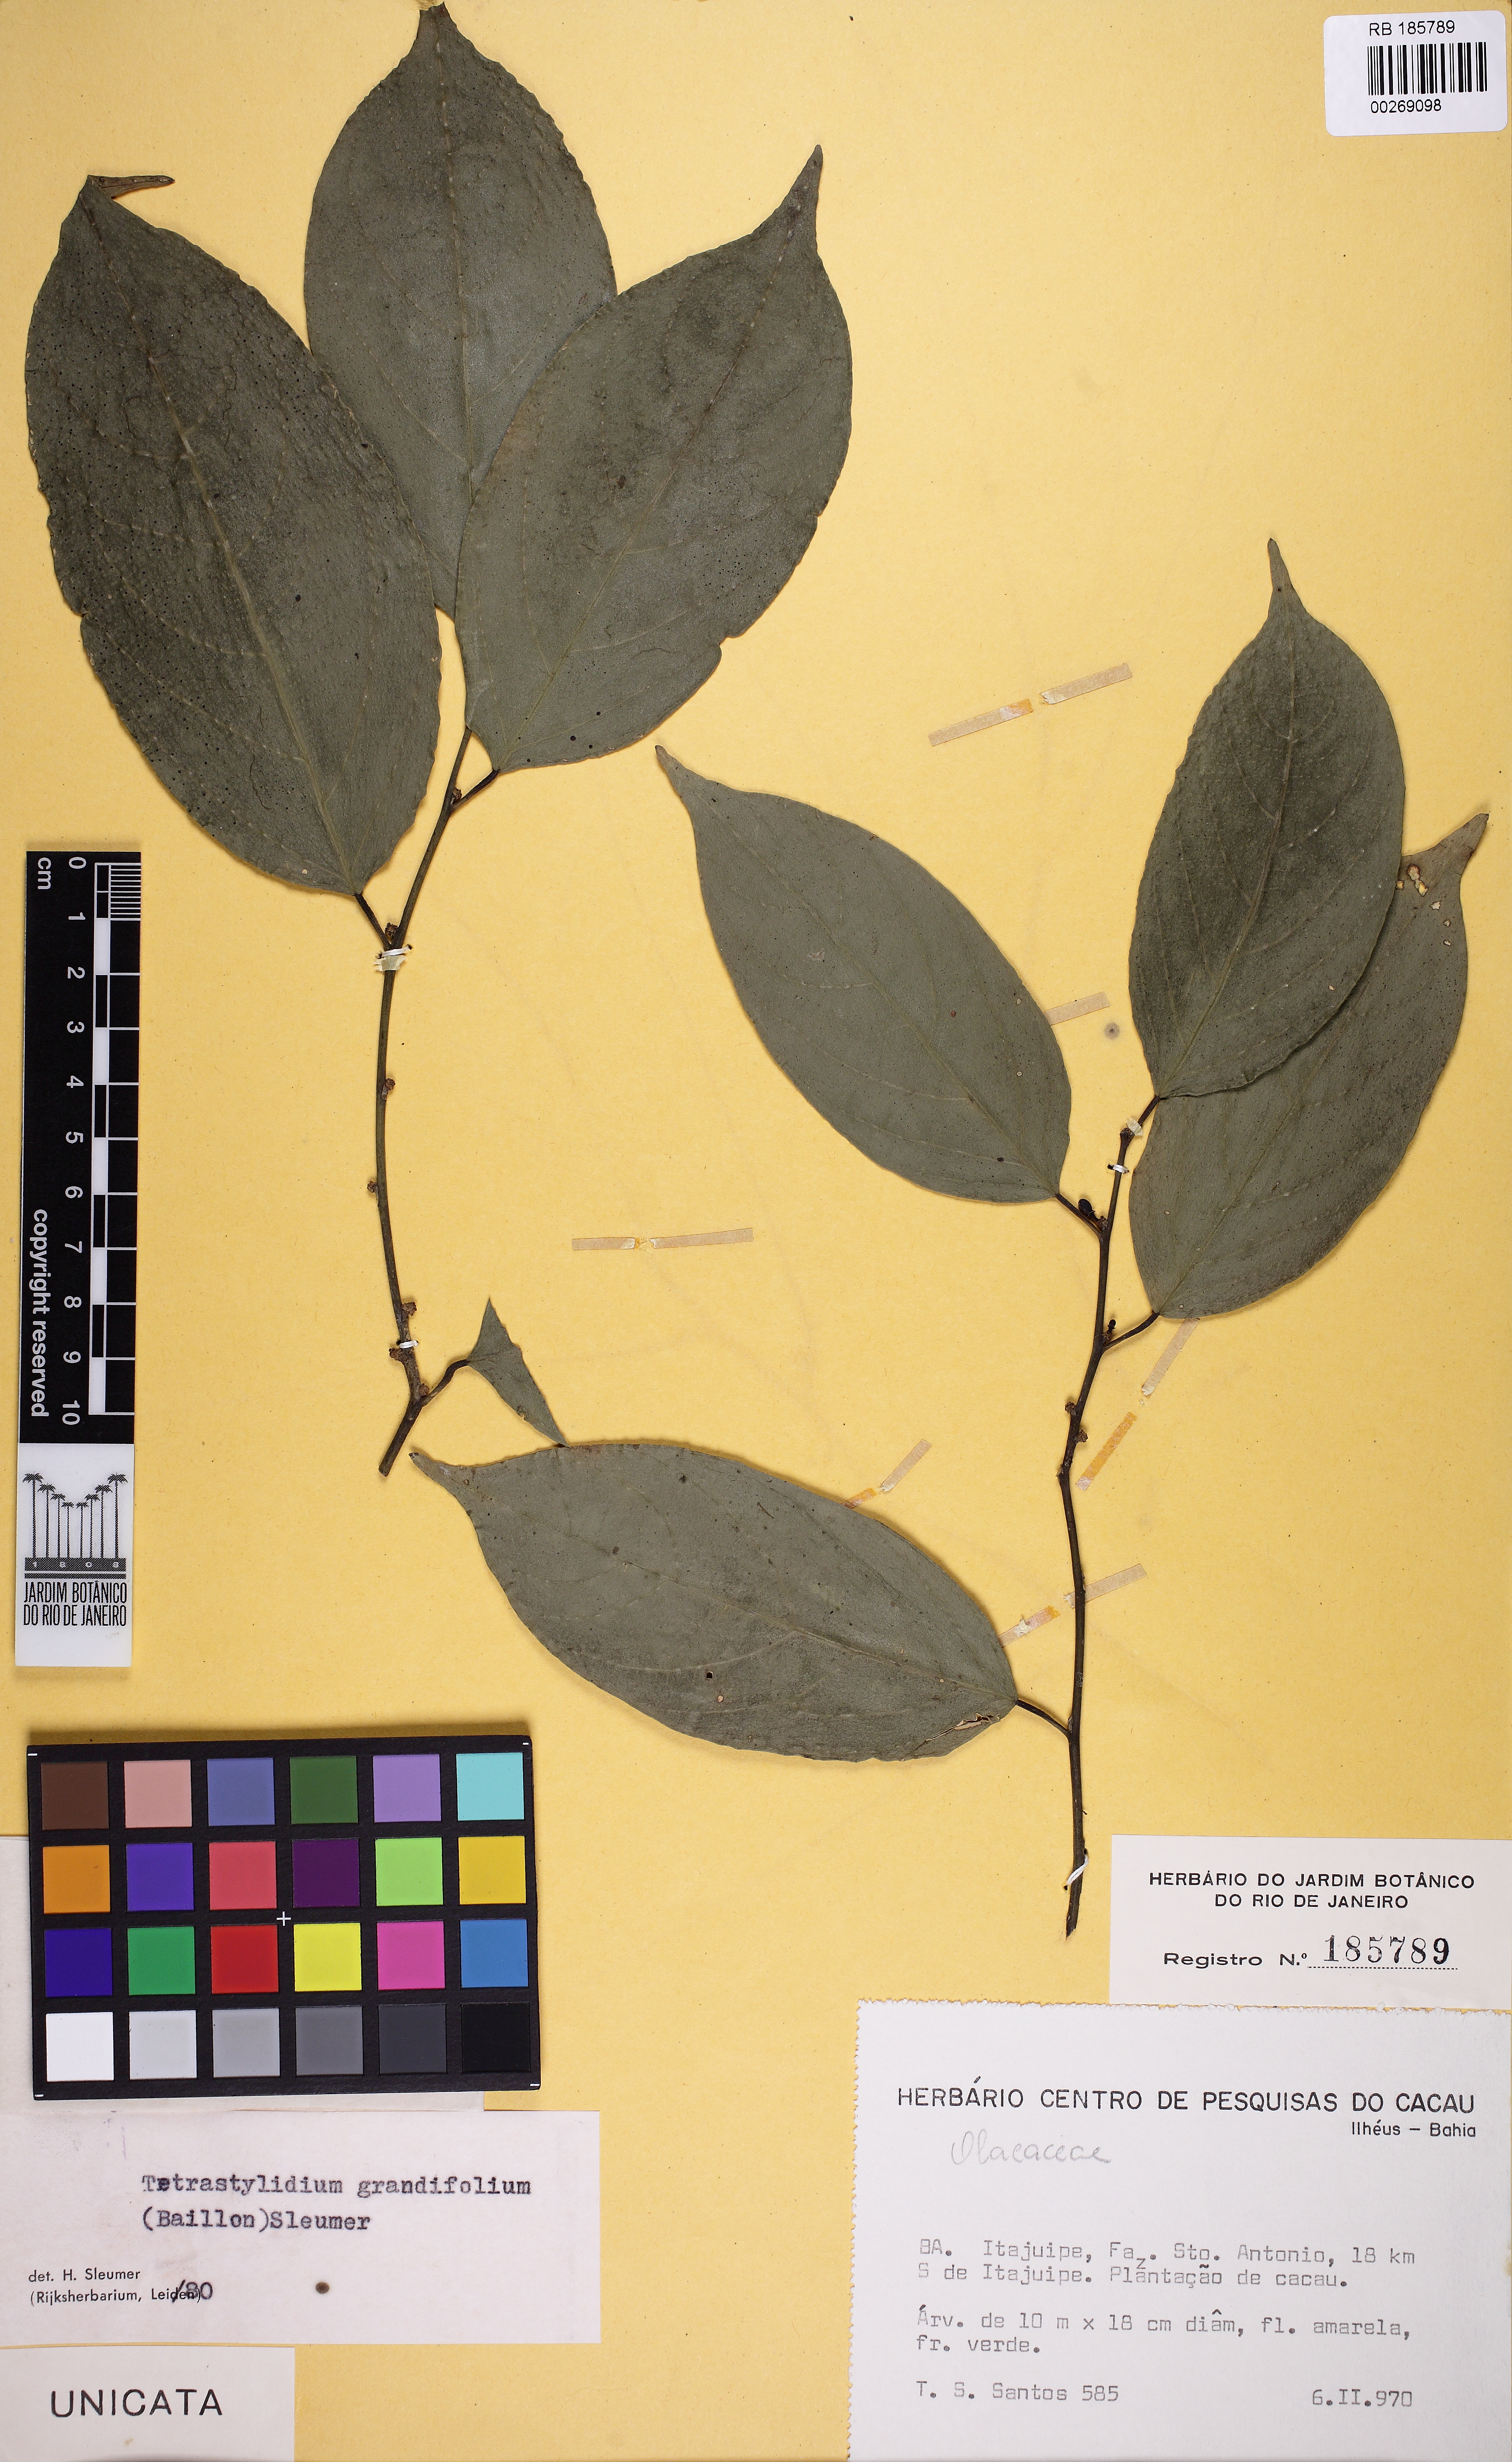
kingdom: Plantae
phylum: Tracheophyta
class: Magnoliopsida
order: Santalales
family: Strombosiaceae
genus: Tetrastylidium
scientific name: Tetrastylidium grandifolium
